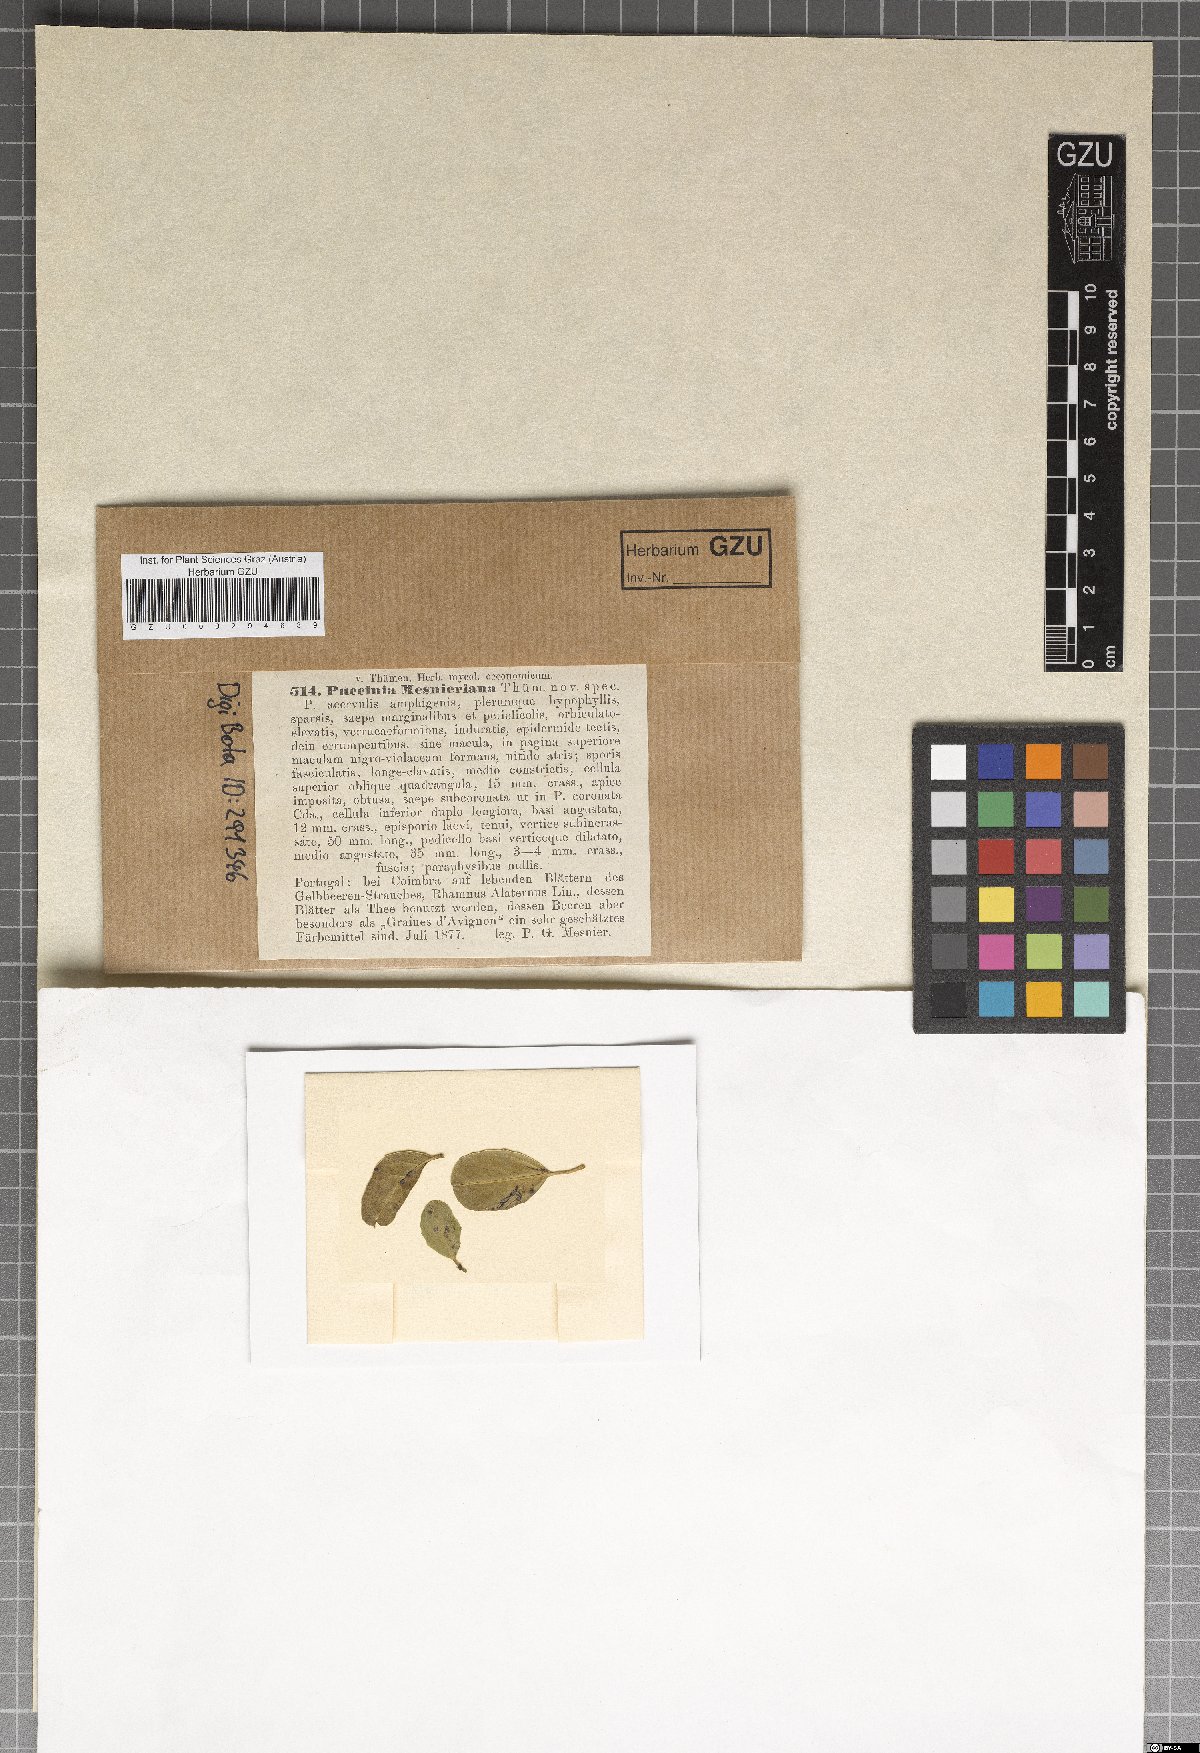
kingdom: Fungi
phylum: Basidiomycota
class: Pucciniomycetes
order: Pucciniales
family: Pucciniaceae
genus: Puccinia
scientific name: Puccinia mesnieriana
